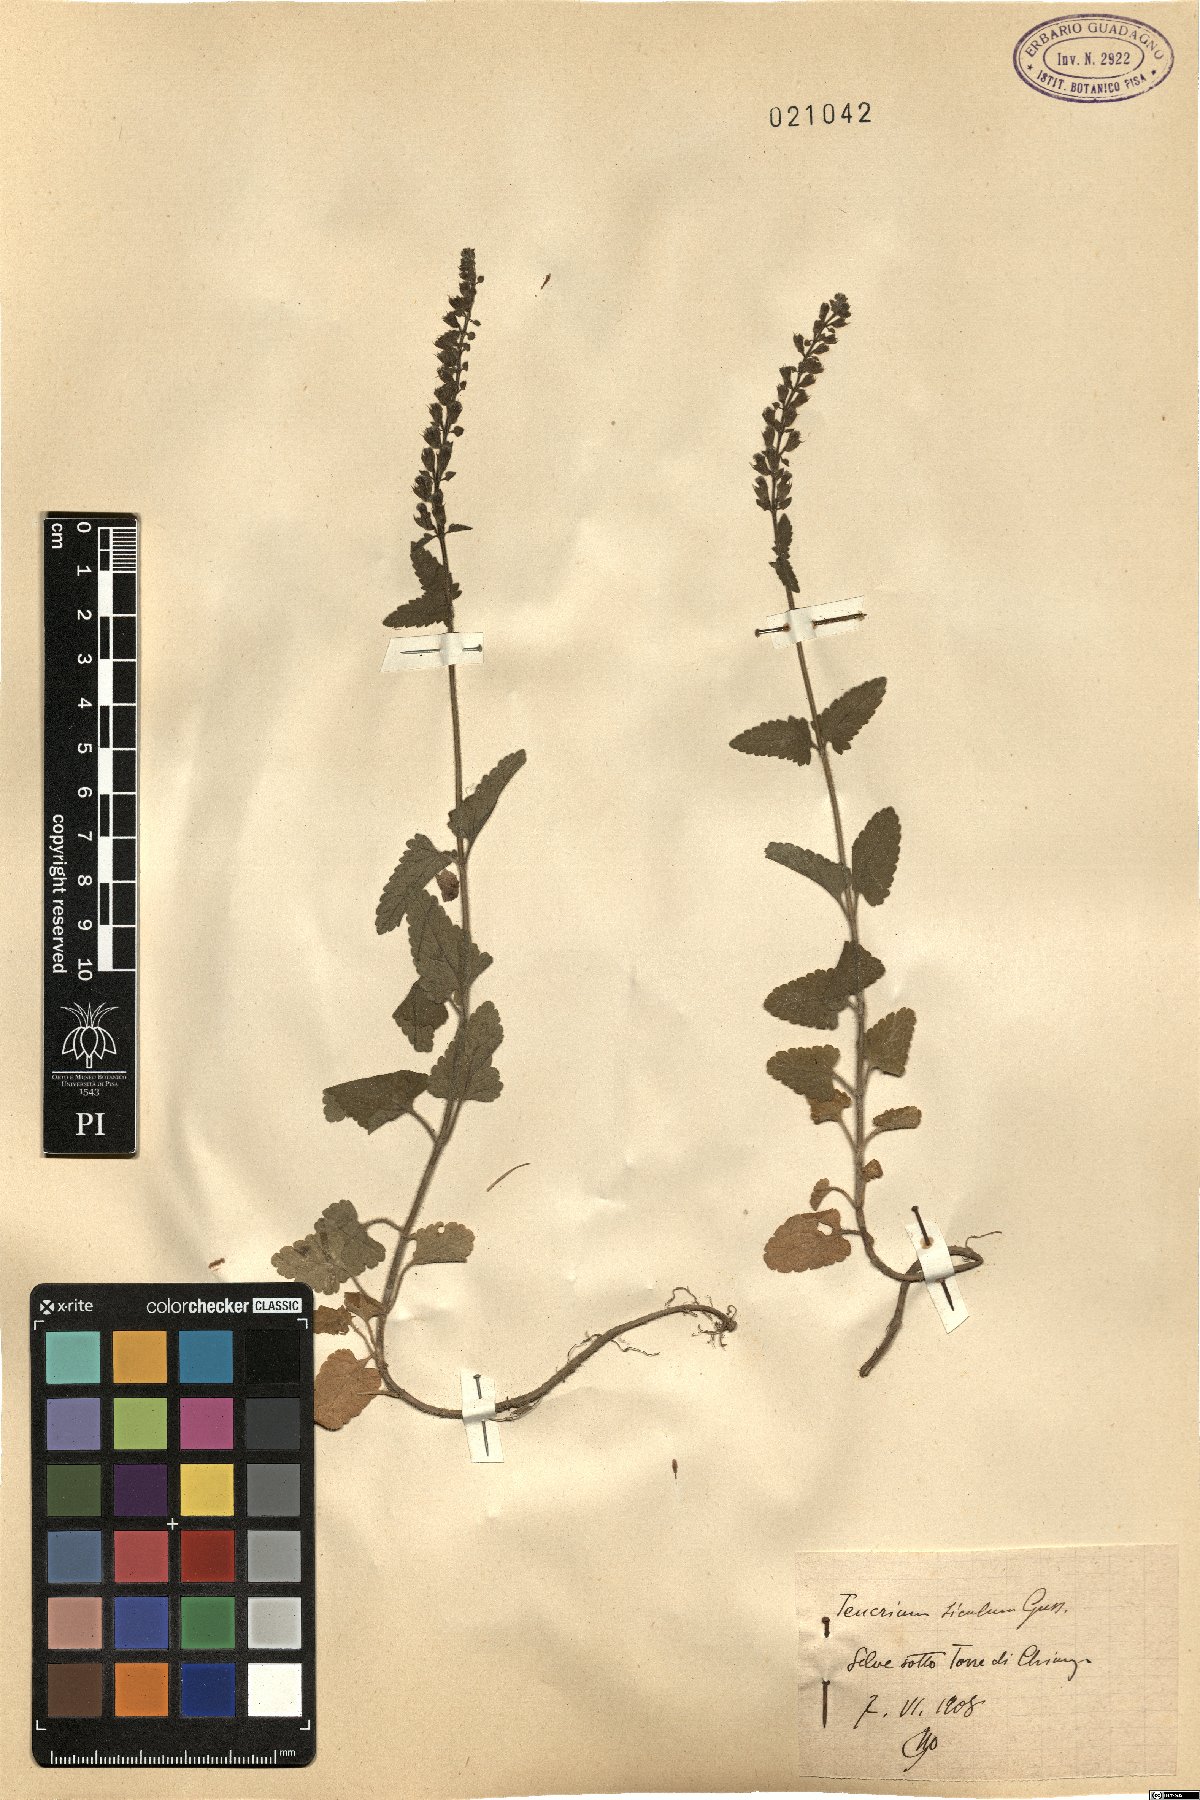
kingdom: Plantae
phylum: Tracheophyta
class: Magnoliopsida
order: Lamiales
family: Lamiaceae
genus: Teucrium
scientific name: Teucrium siculum
